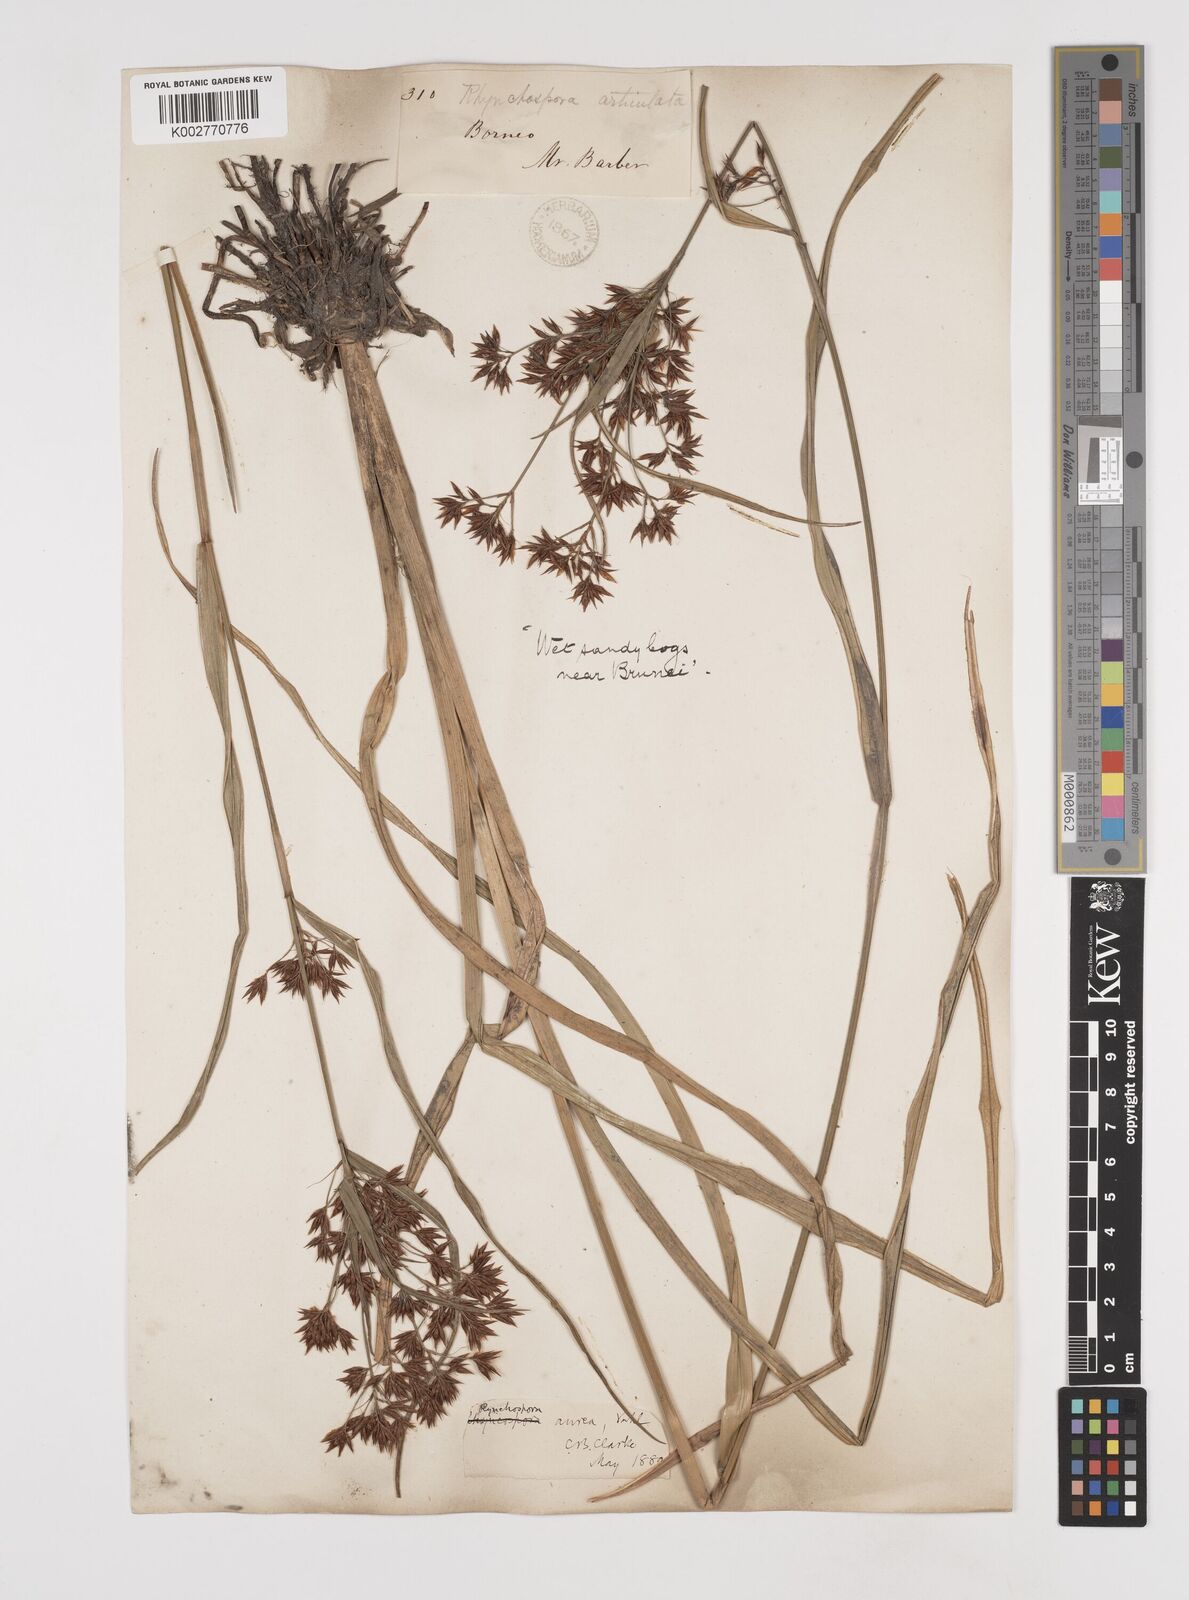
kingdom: Plantae
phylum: Tracheophyta
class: Liliopsida
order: Poales
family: Cyperaceae
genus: Rhynchospora
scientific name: Rhynchospora corymbosa
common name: Golden beak sedge
